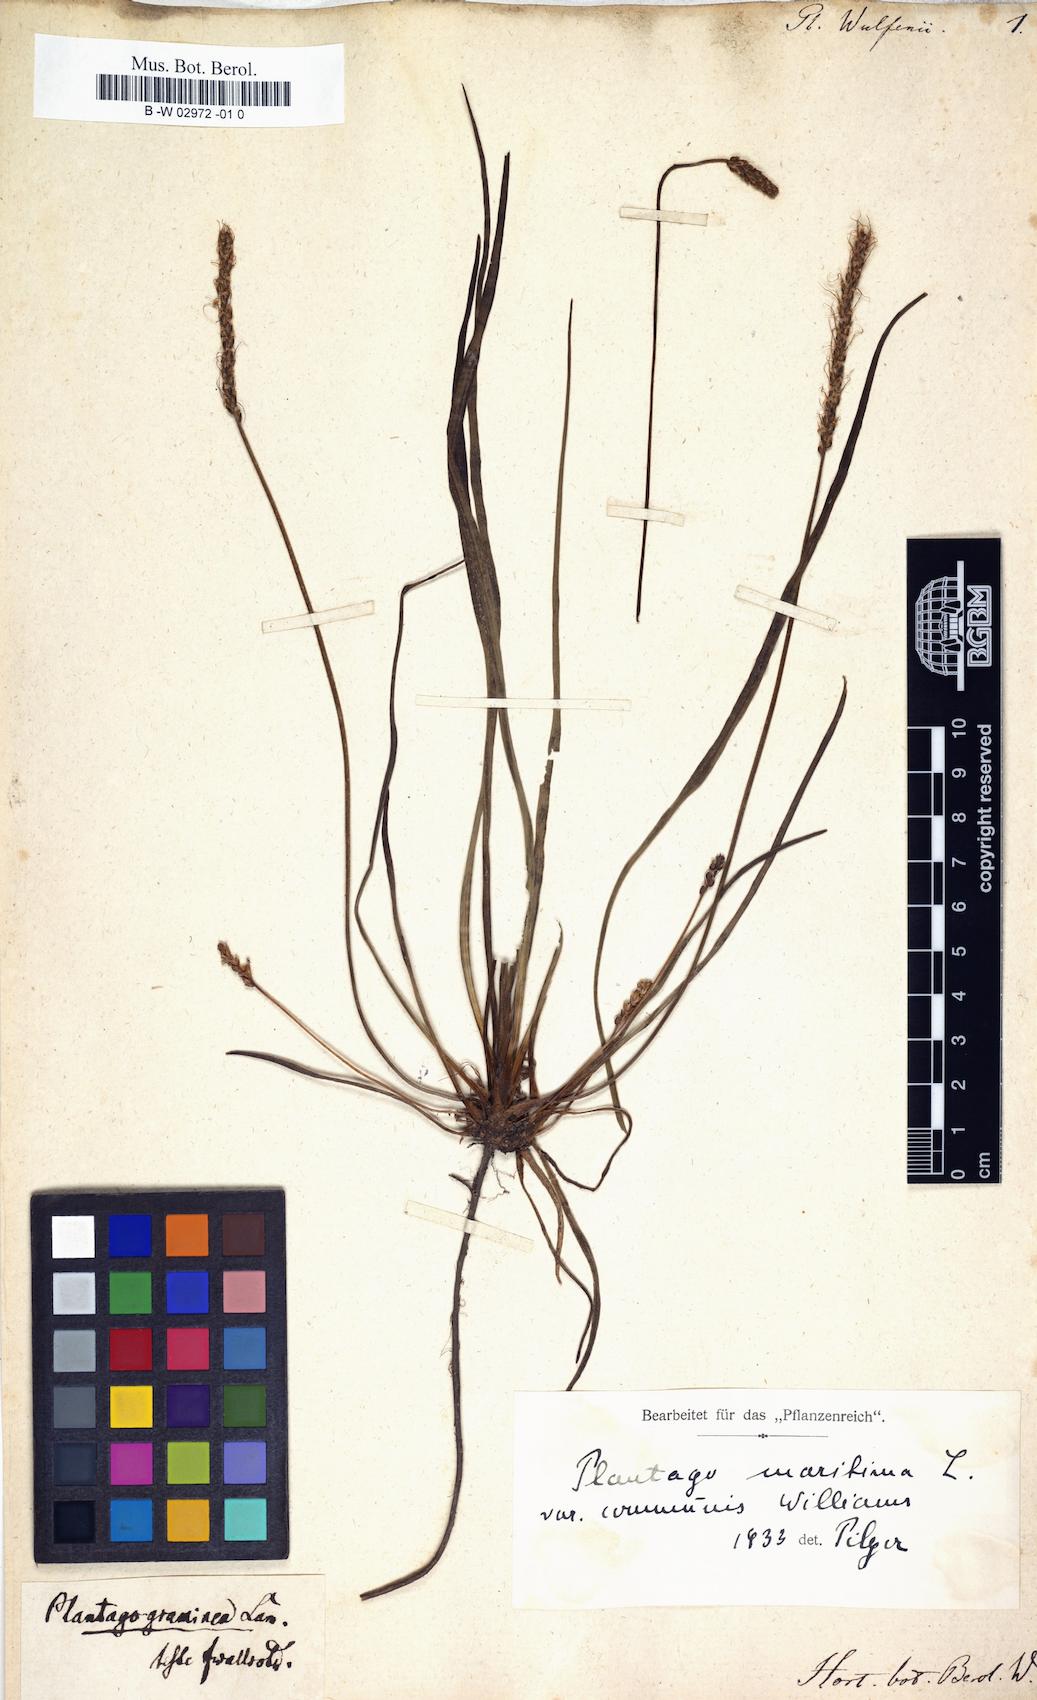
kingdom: Plantae
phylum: Tracheophyta
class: Magnoliopsida
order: Lamiales
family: Plantaginaceae
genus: Plantago
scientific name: Plantago
